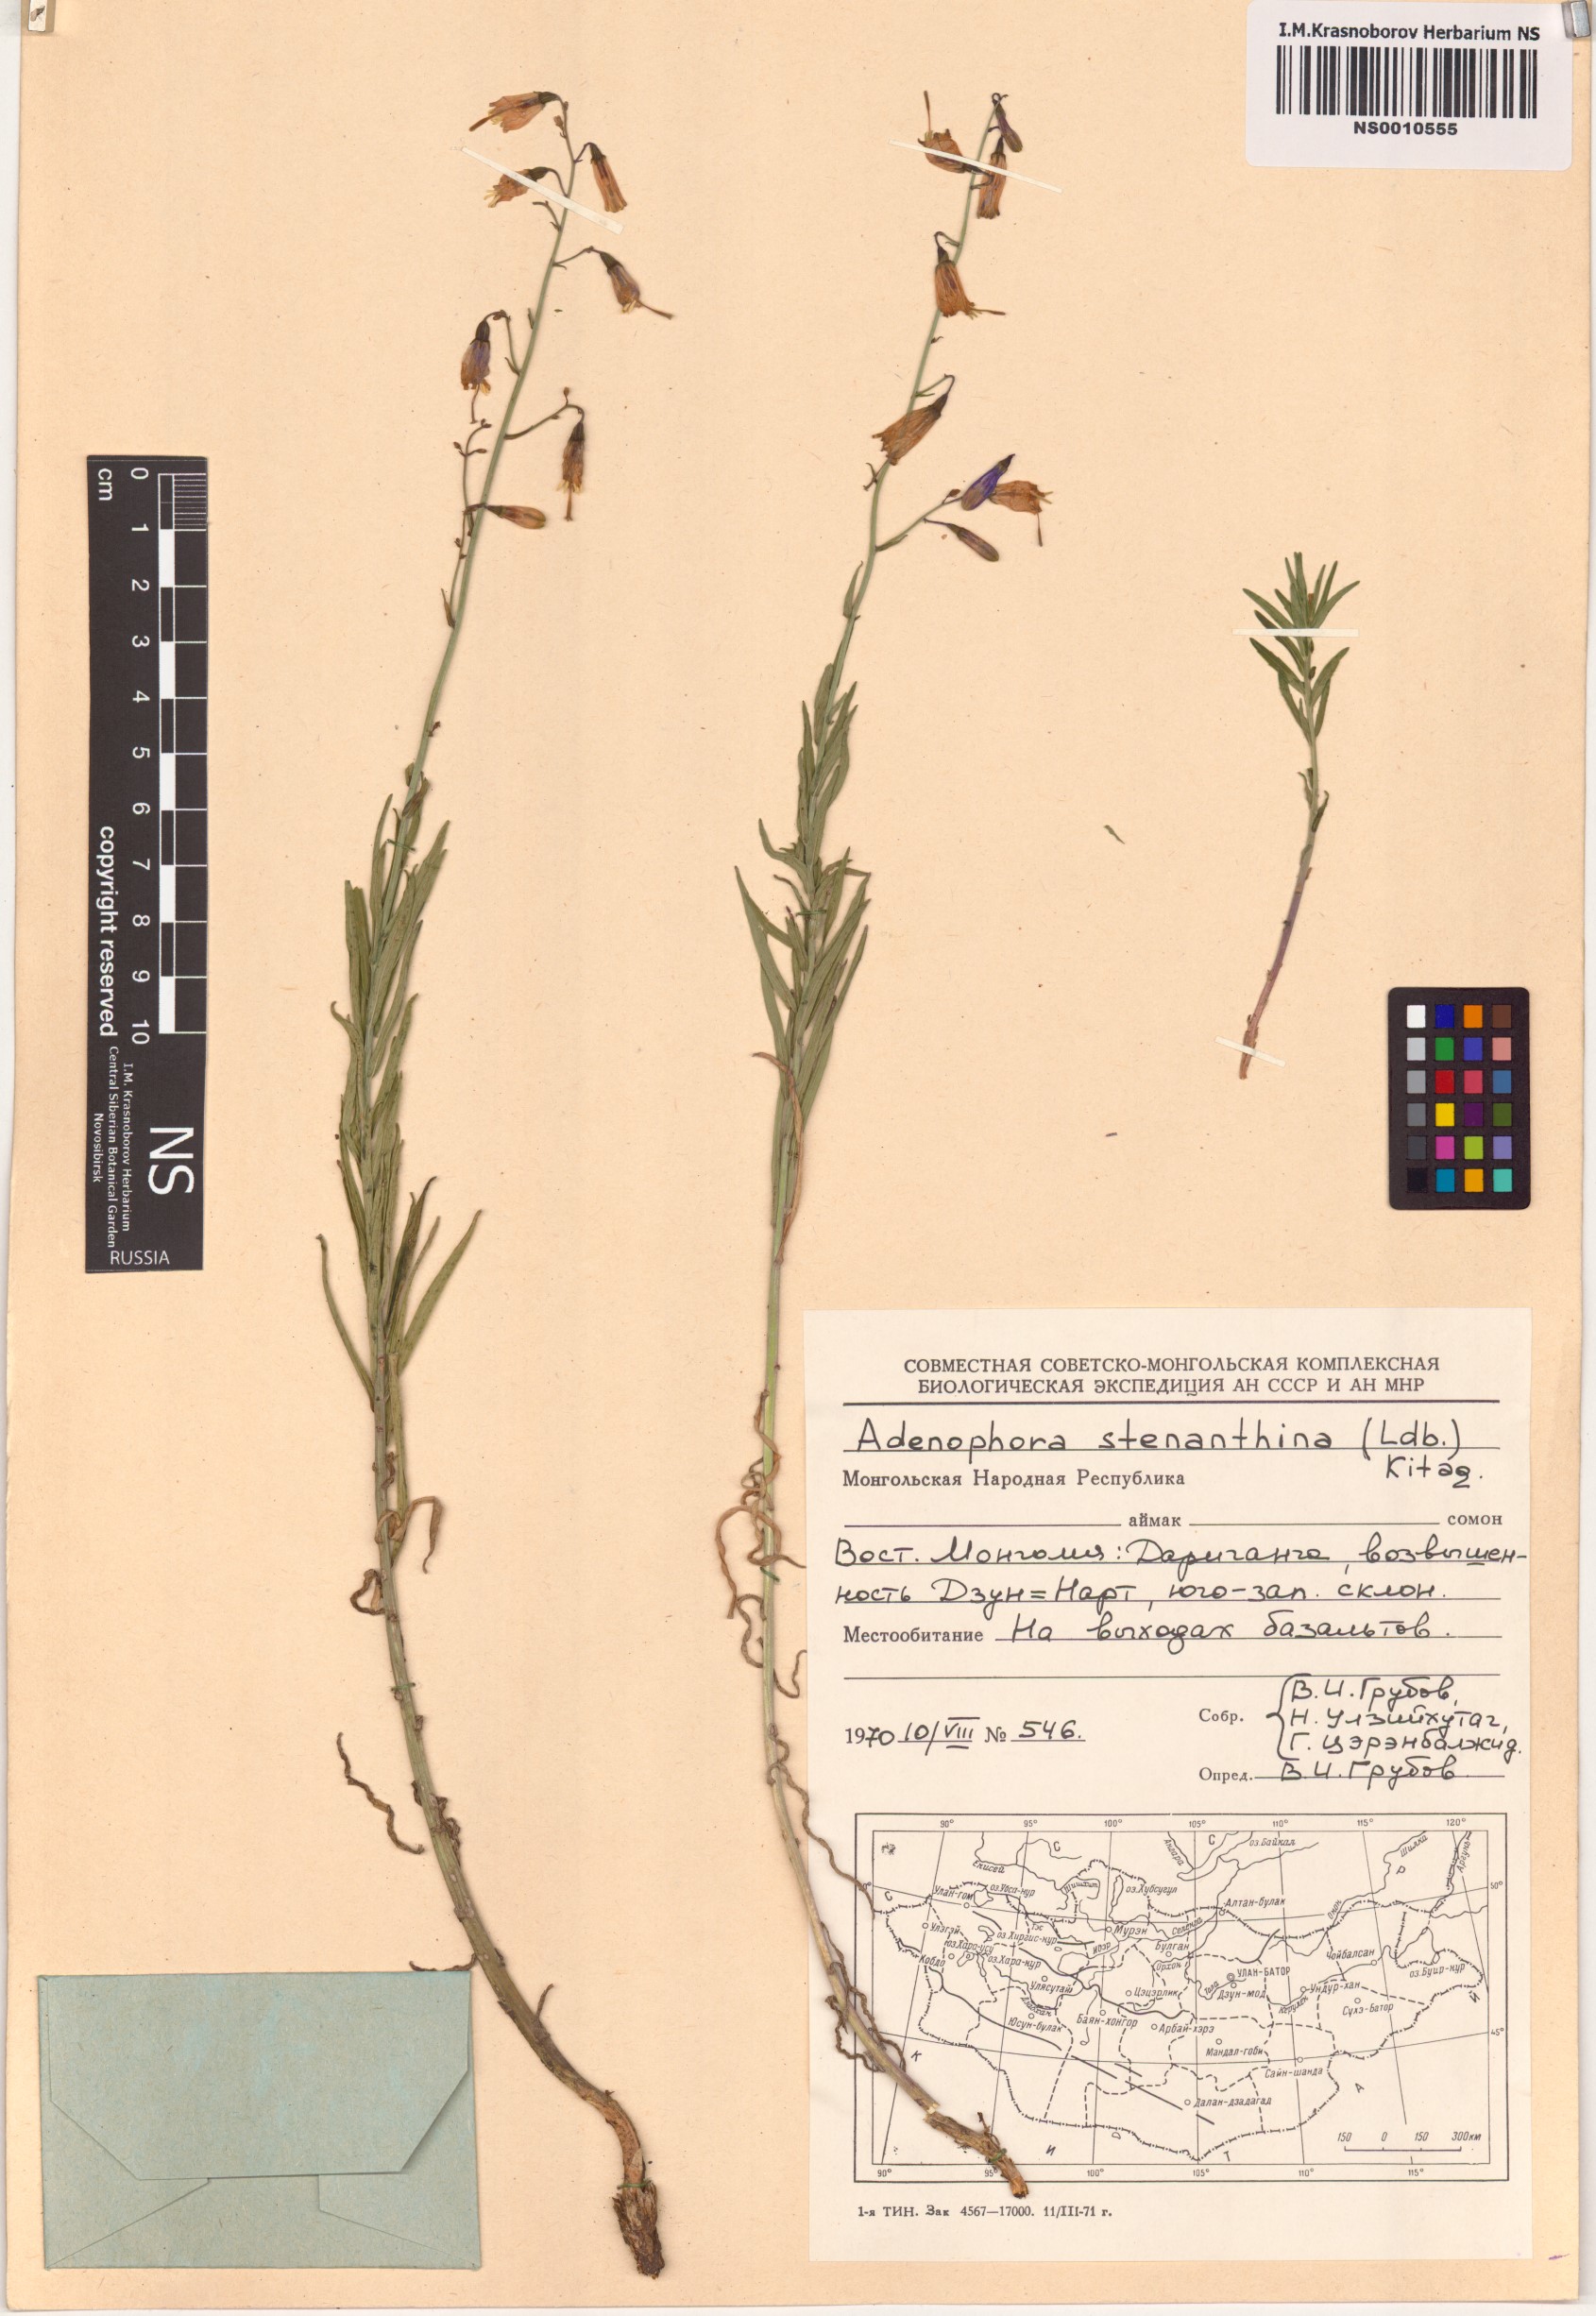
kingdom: Plantae
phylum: Tracheophyta
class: Magnoliopsida
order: Asterales
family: Campanulaceae
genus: Adenophora
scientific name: Adenophora stenanthina
